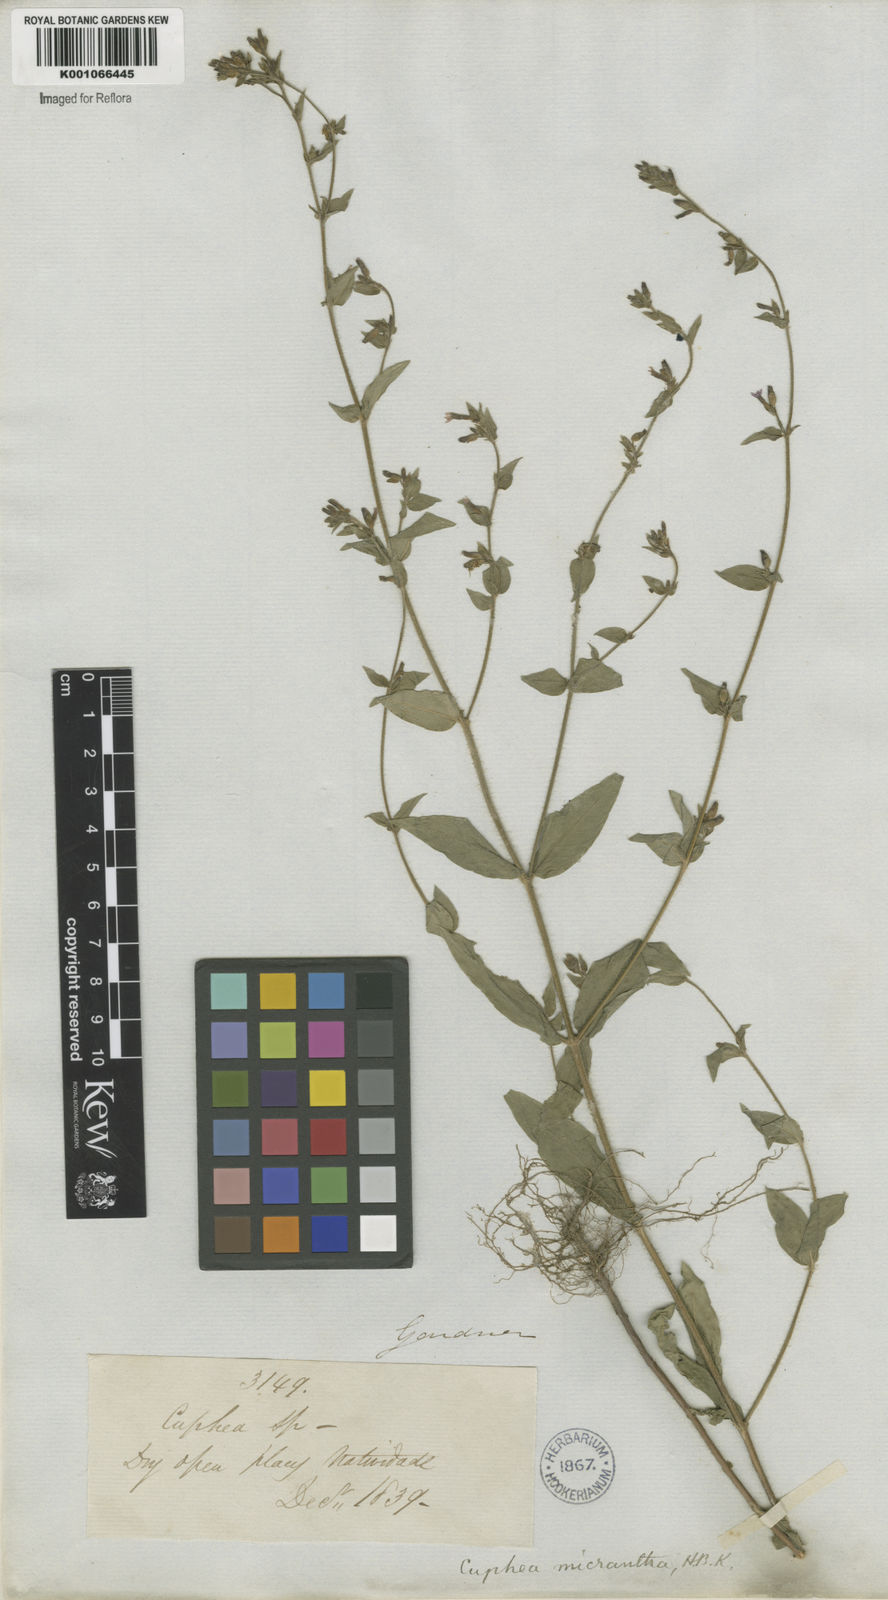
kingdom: Plantae
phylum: Tracheophyta
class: Magnoliopsida
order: Myrtales
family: Lythraceae
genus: Cuphea
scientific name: Cuphea micrantha
